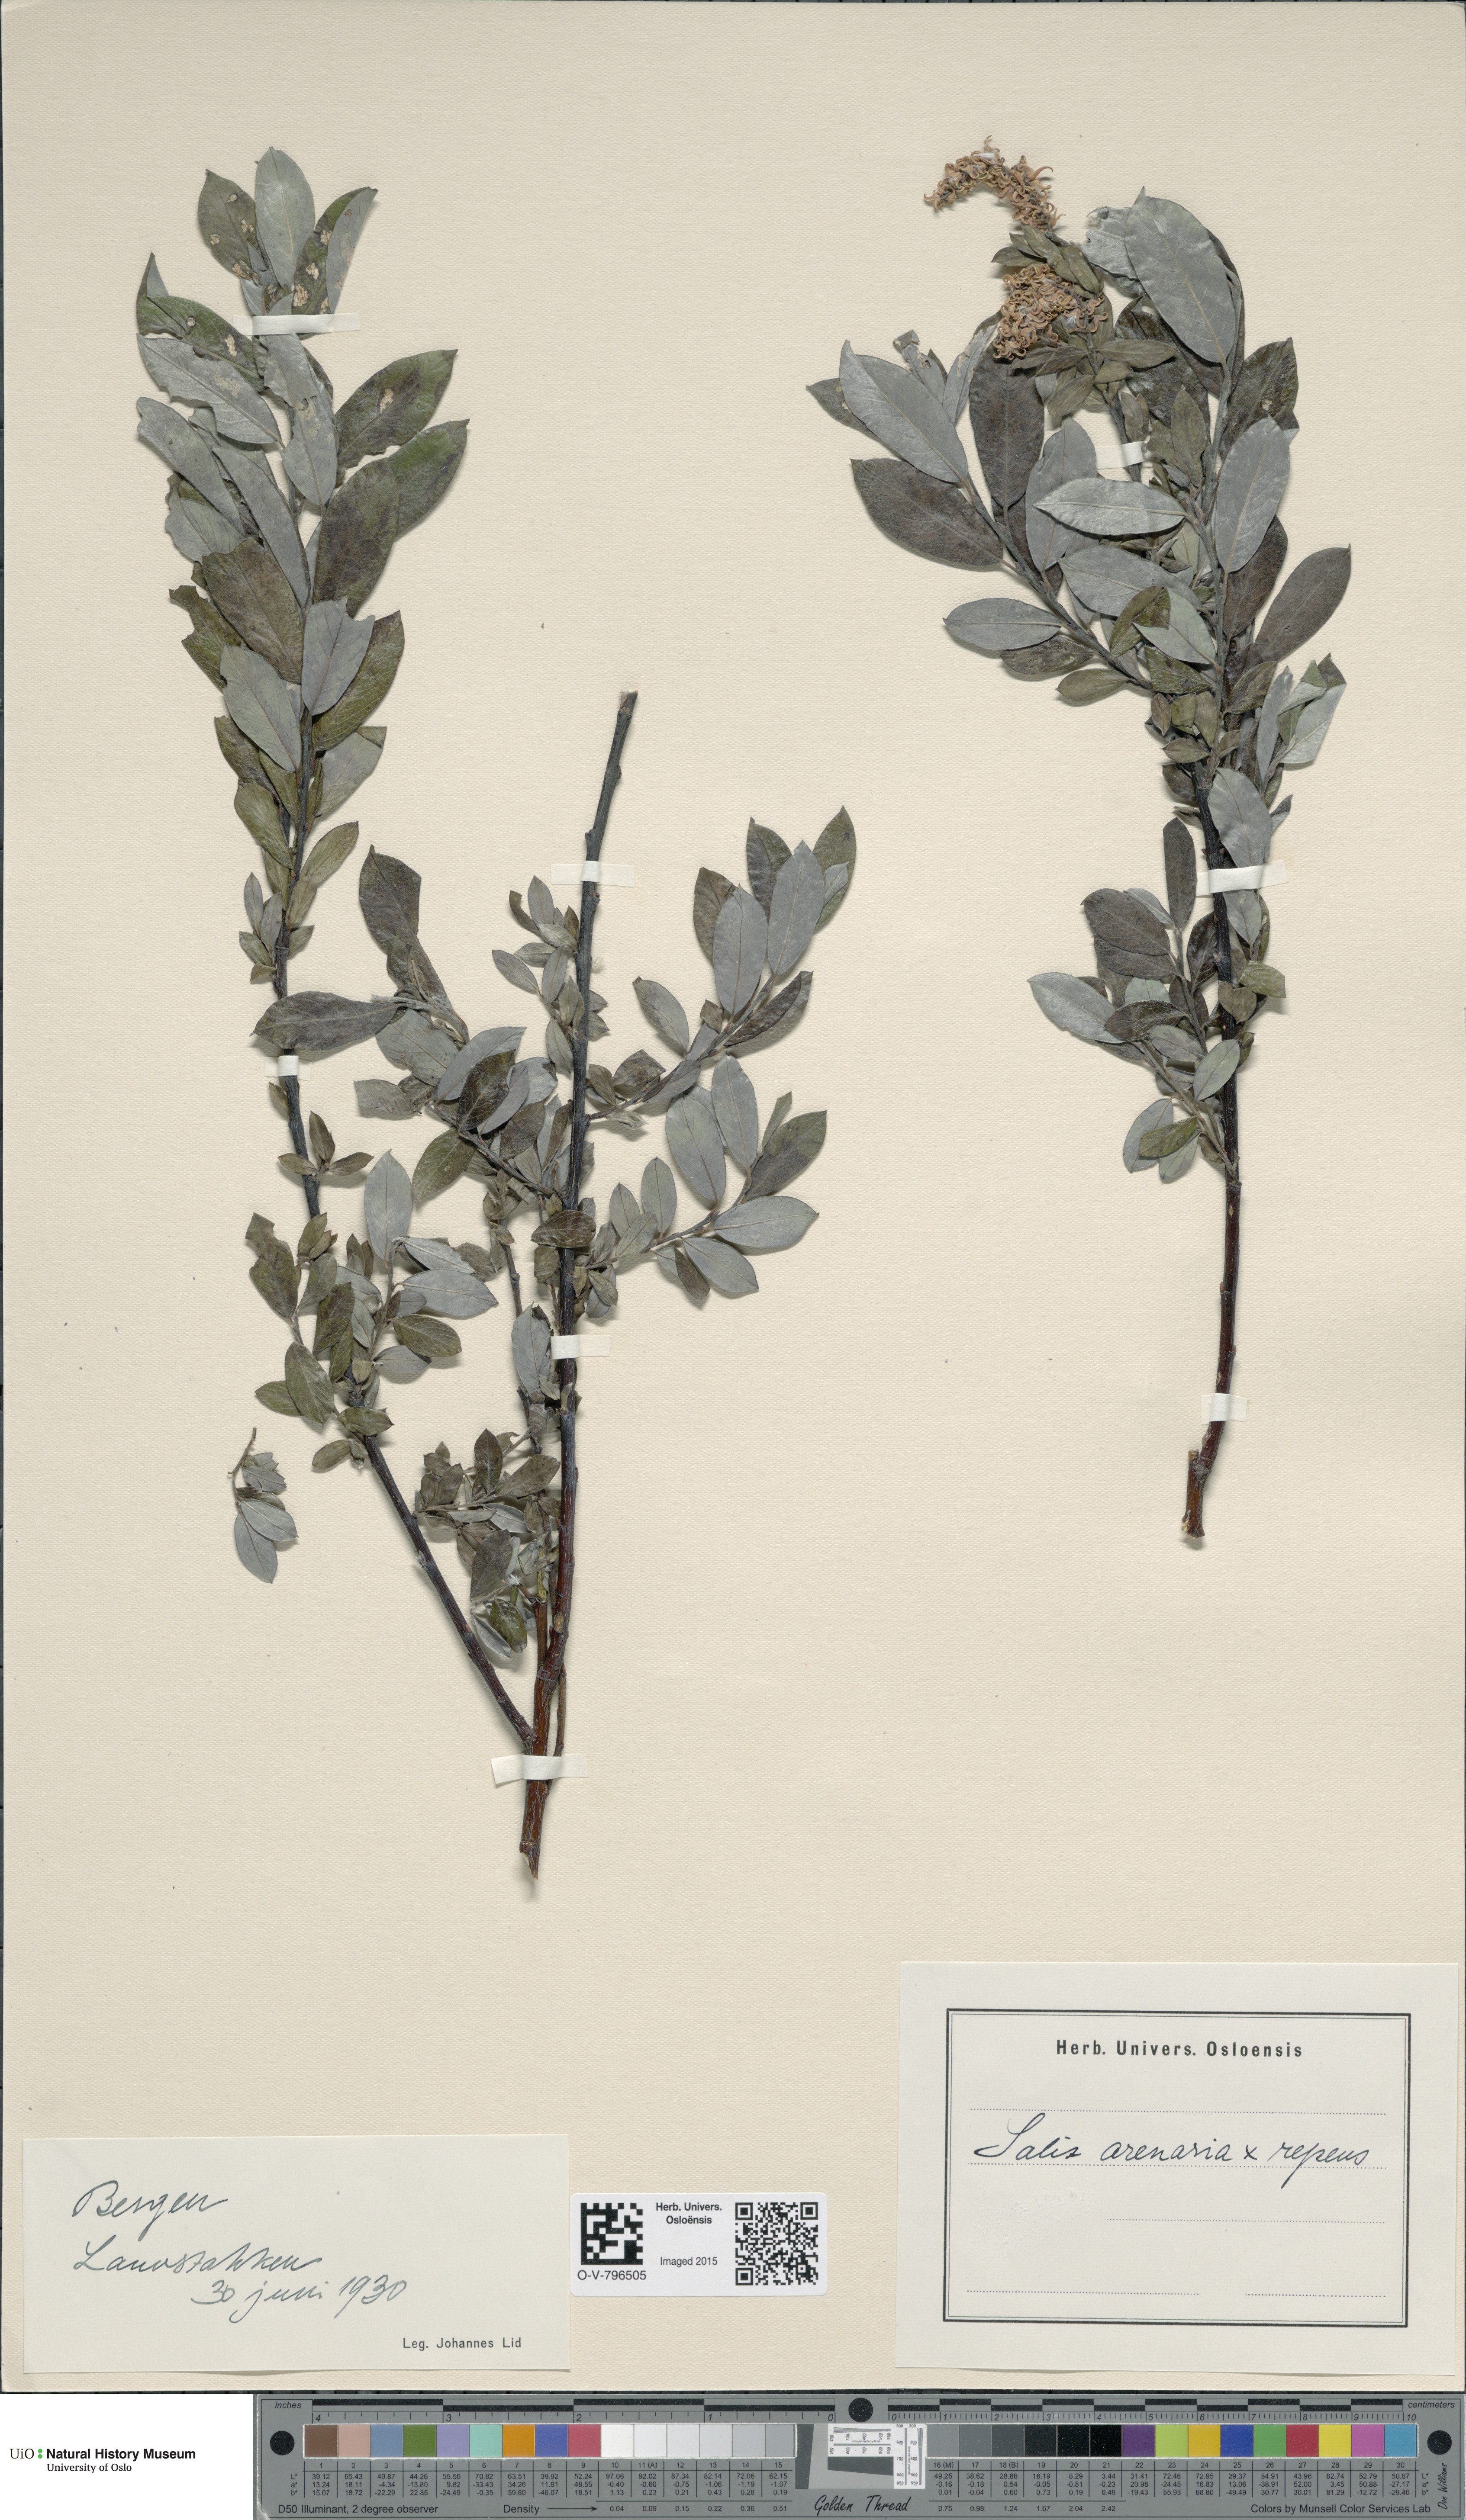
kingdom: Plantae
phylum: Tracheophyta
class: Magnoliopsida
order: Malpighiales
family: Salicaceae
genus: Salix
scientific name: Salix
